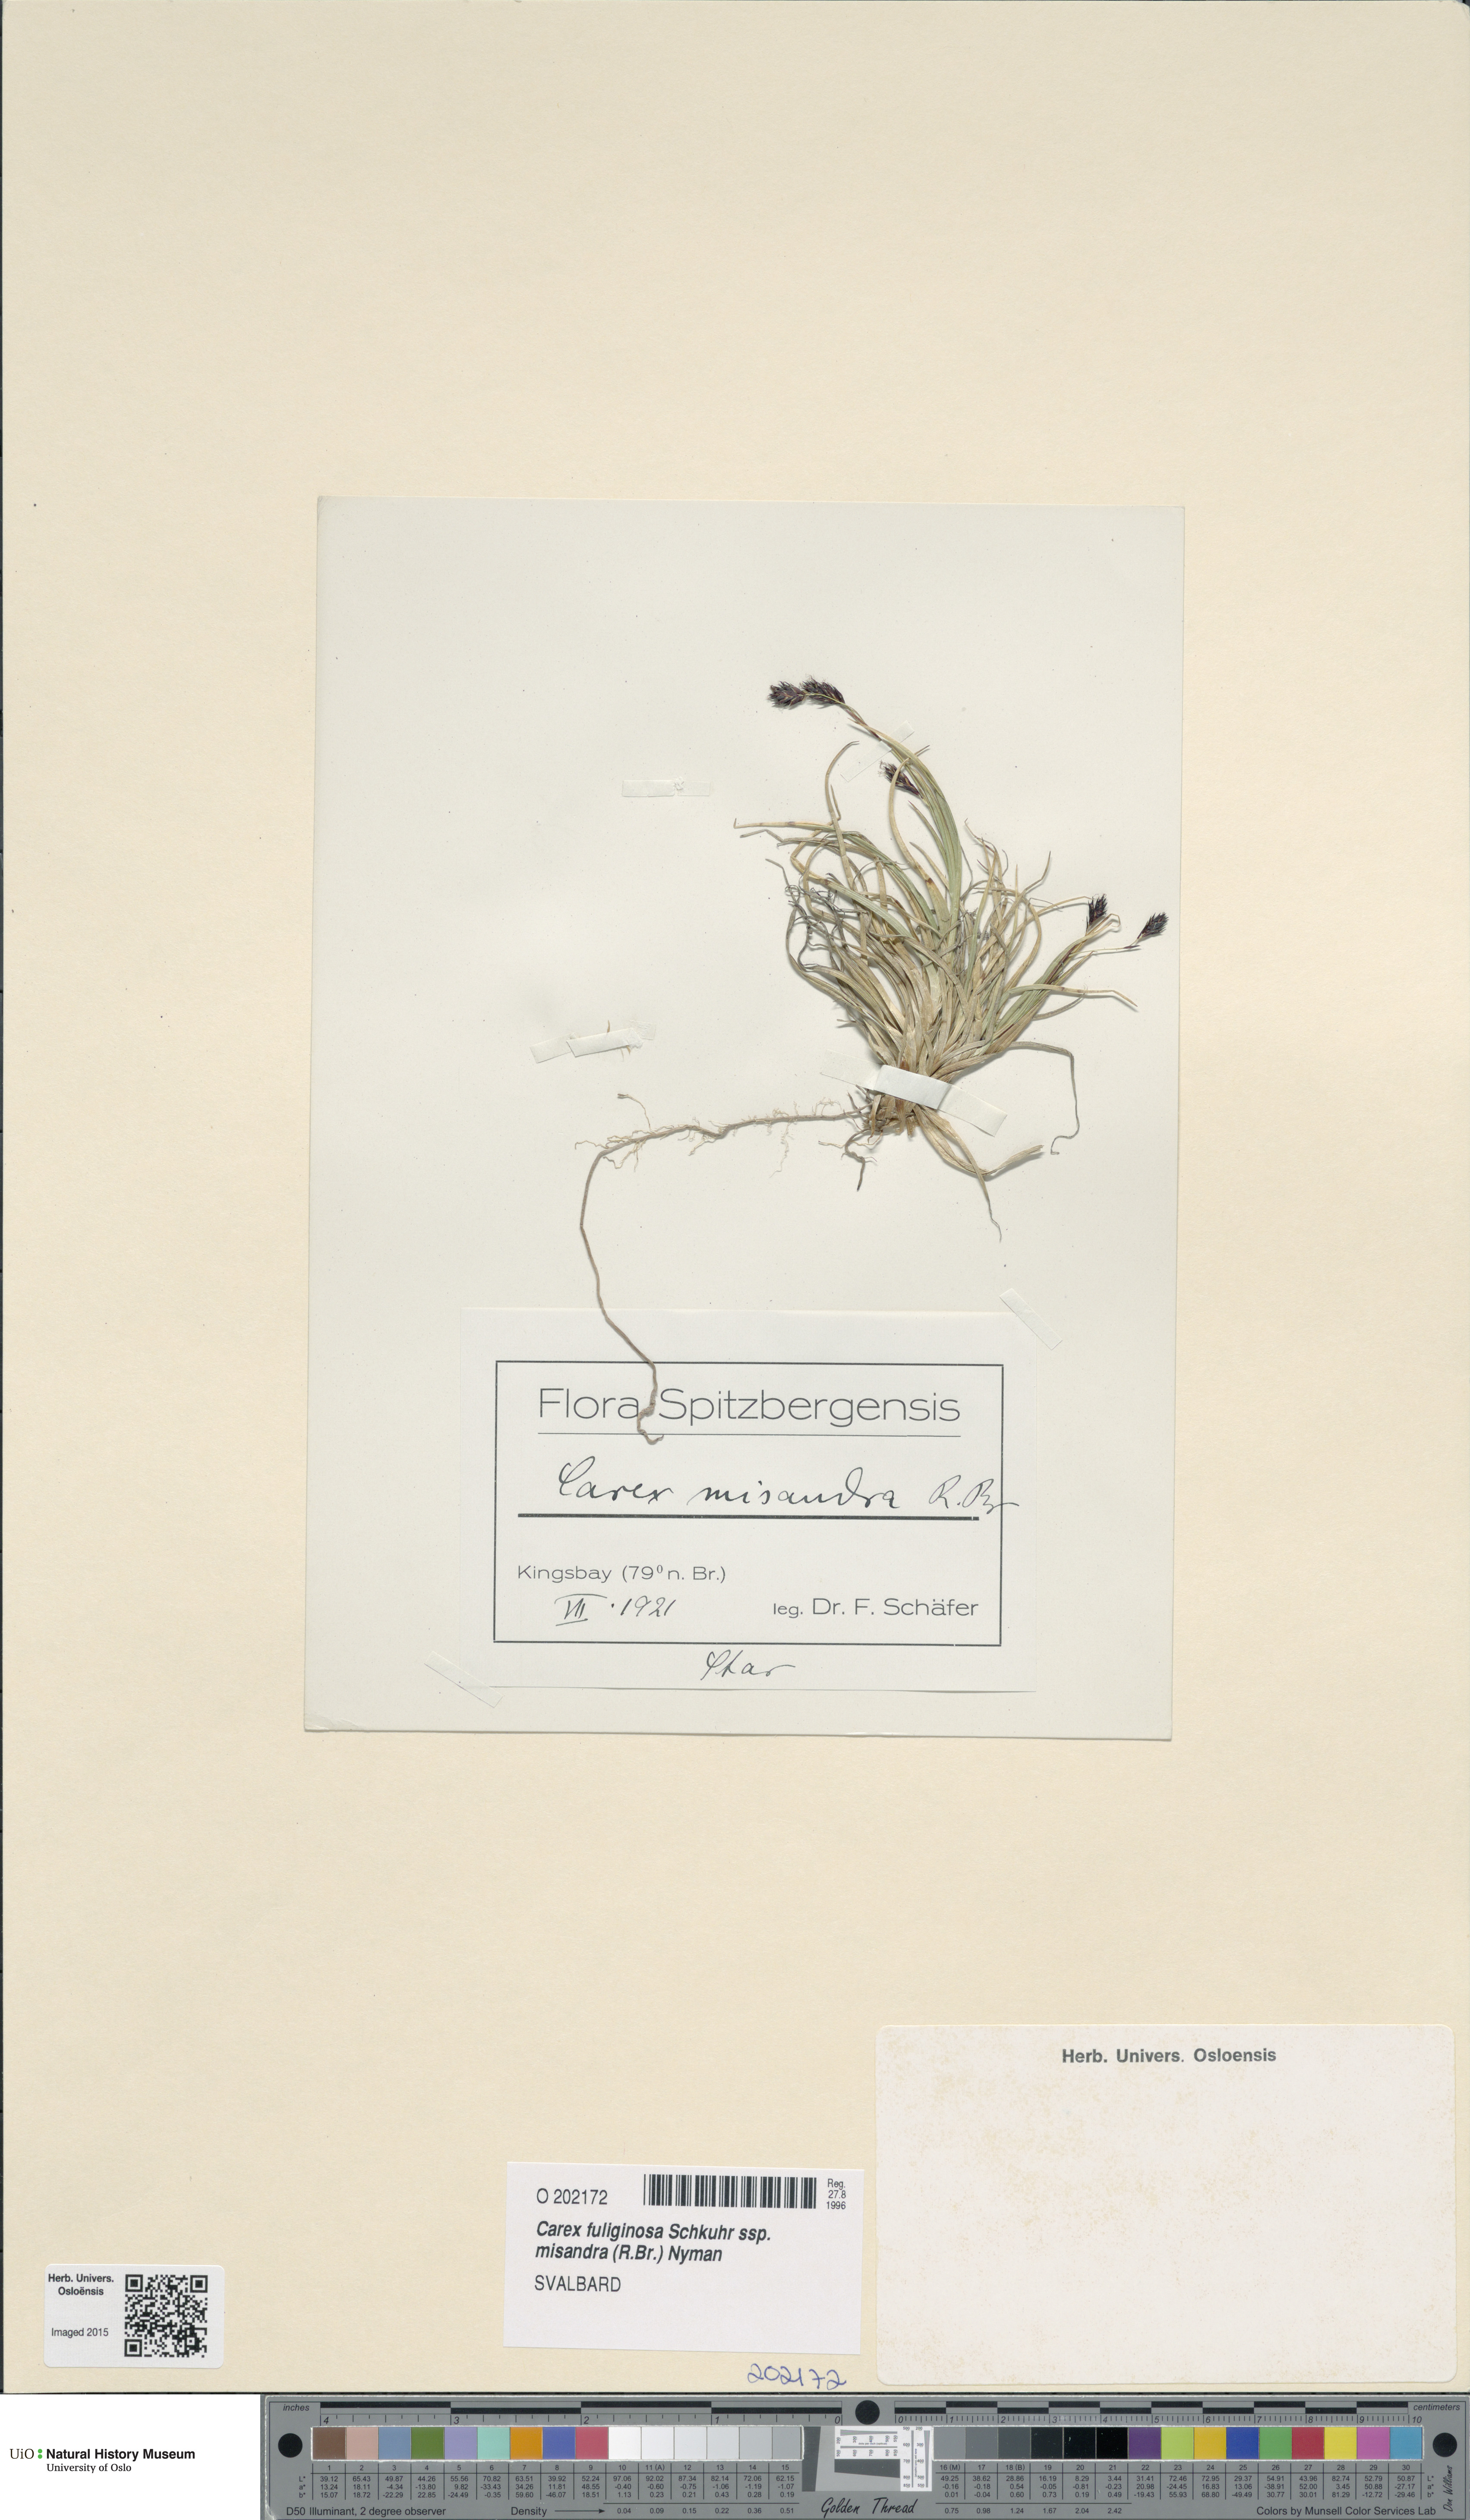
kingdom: Plantae
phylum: Tracheophyta
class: Liliopsida
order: Poales
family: Cyperaceae
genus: Carex
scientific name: Carex fuliginosa
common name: Few-flowered sedge
